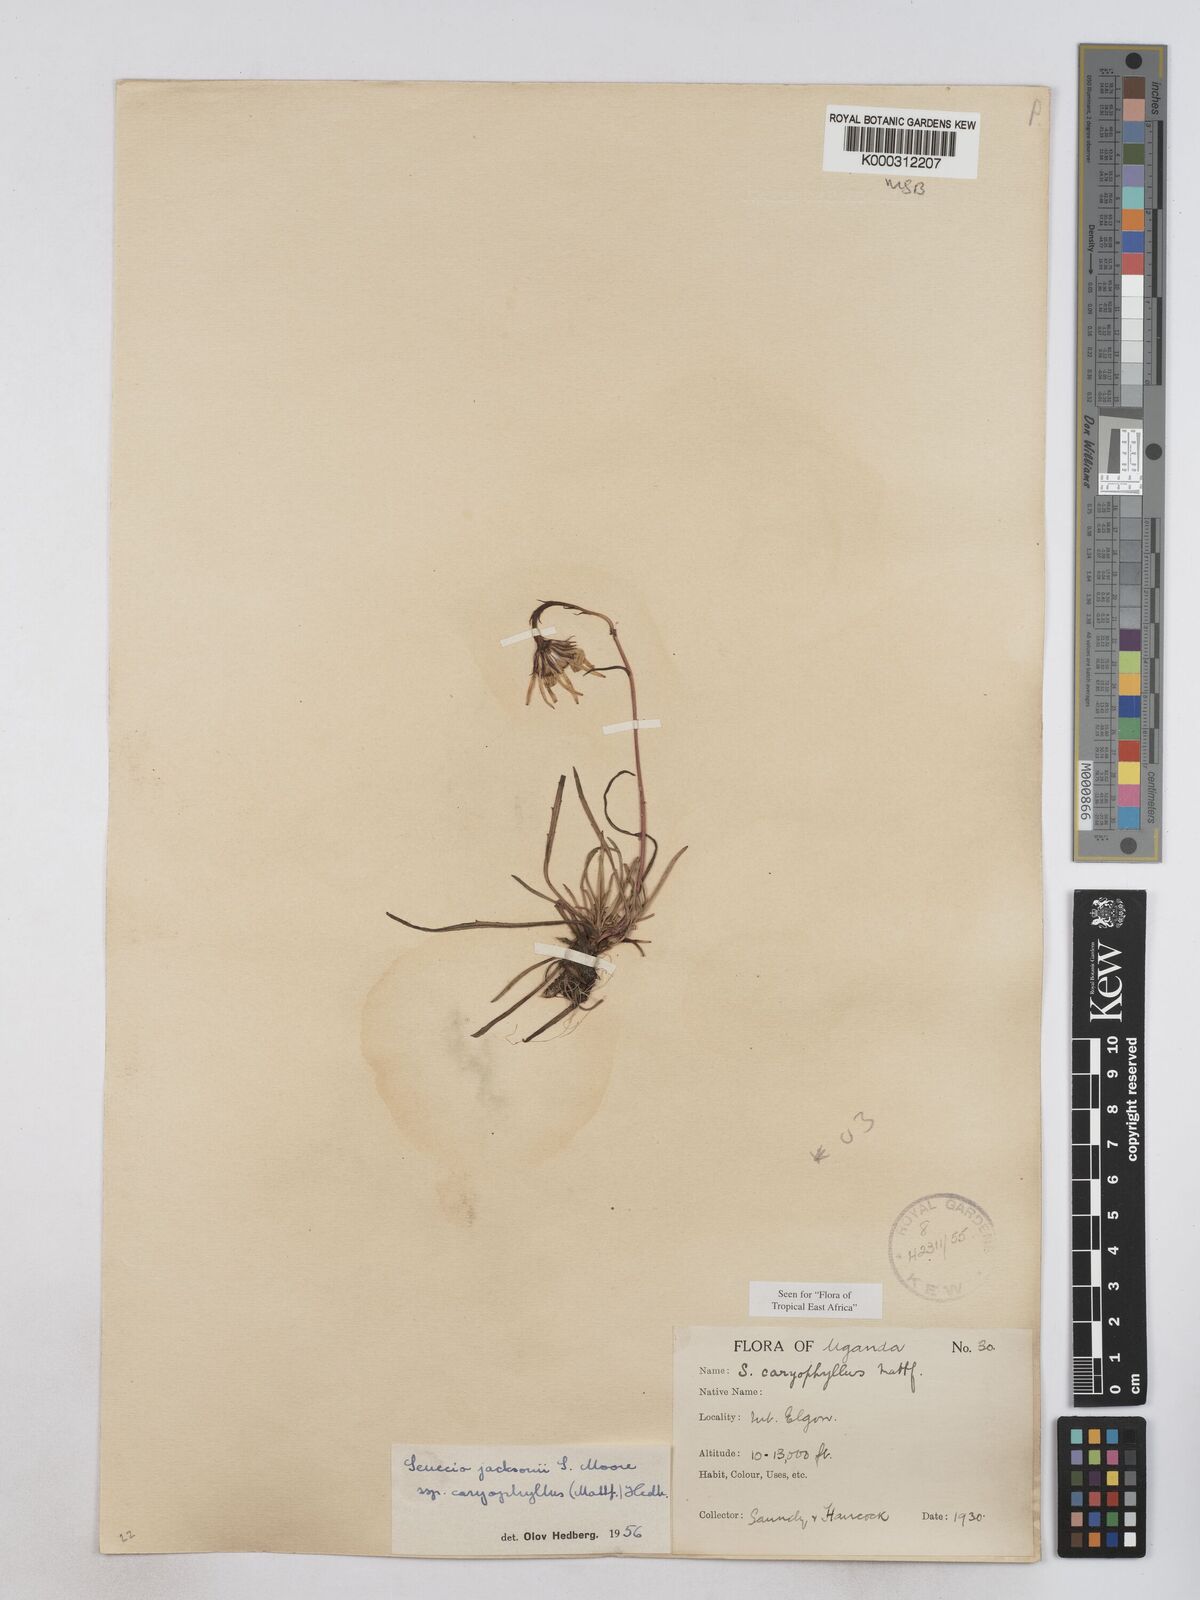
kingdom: Plantae
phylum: Tracheophyta
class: Magnoliopsida
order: Asterales
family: Asteraceae
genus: Senecio
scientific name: Senecio jacksonii
